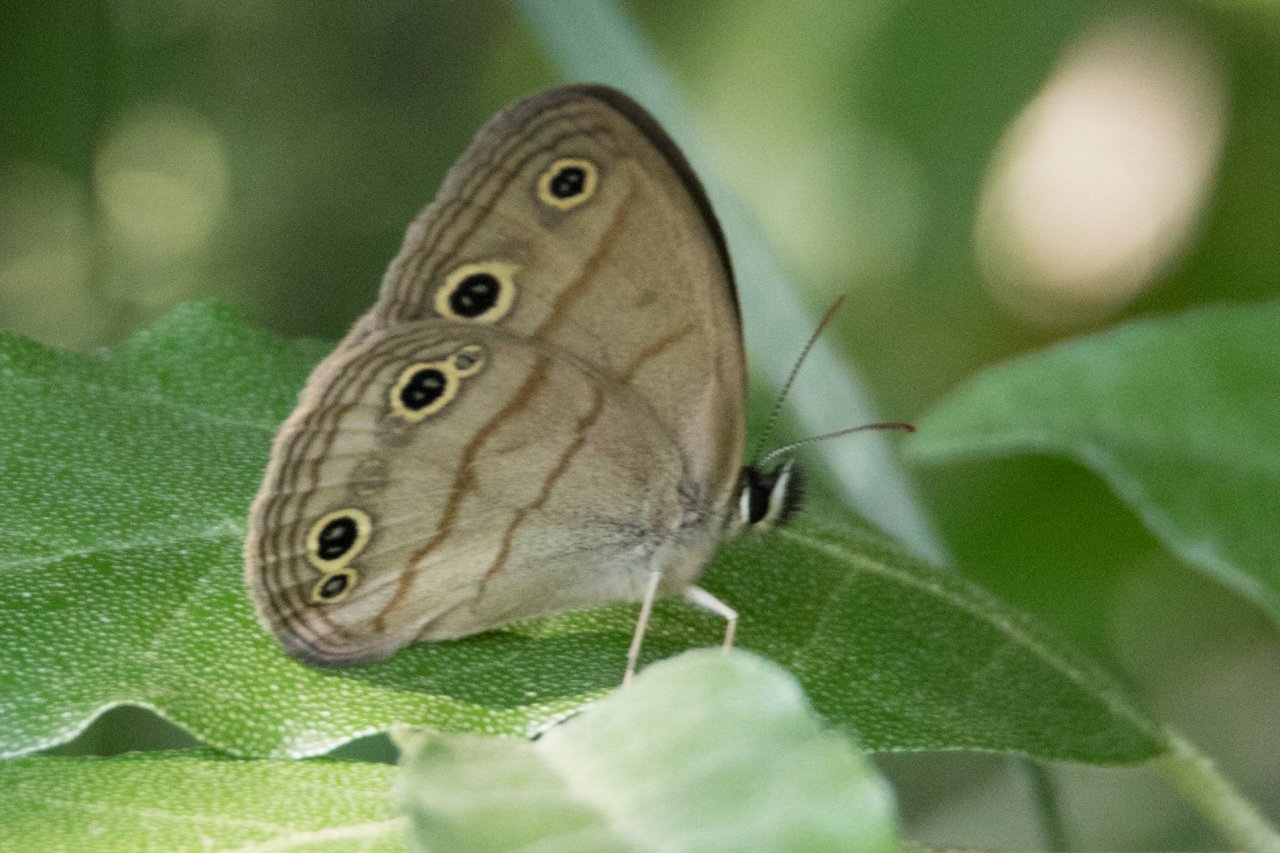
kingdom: Animalia
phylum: Arthropoda
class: Insecta
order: Lepidoptera
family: Nymphalidae
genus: Euptychia
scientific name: Euptychia cymela
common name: Little Wood Satyr
